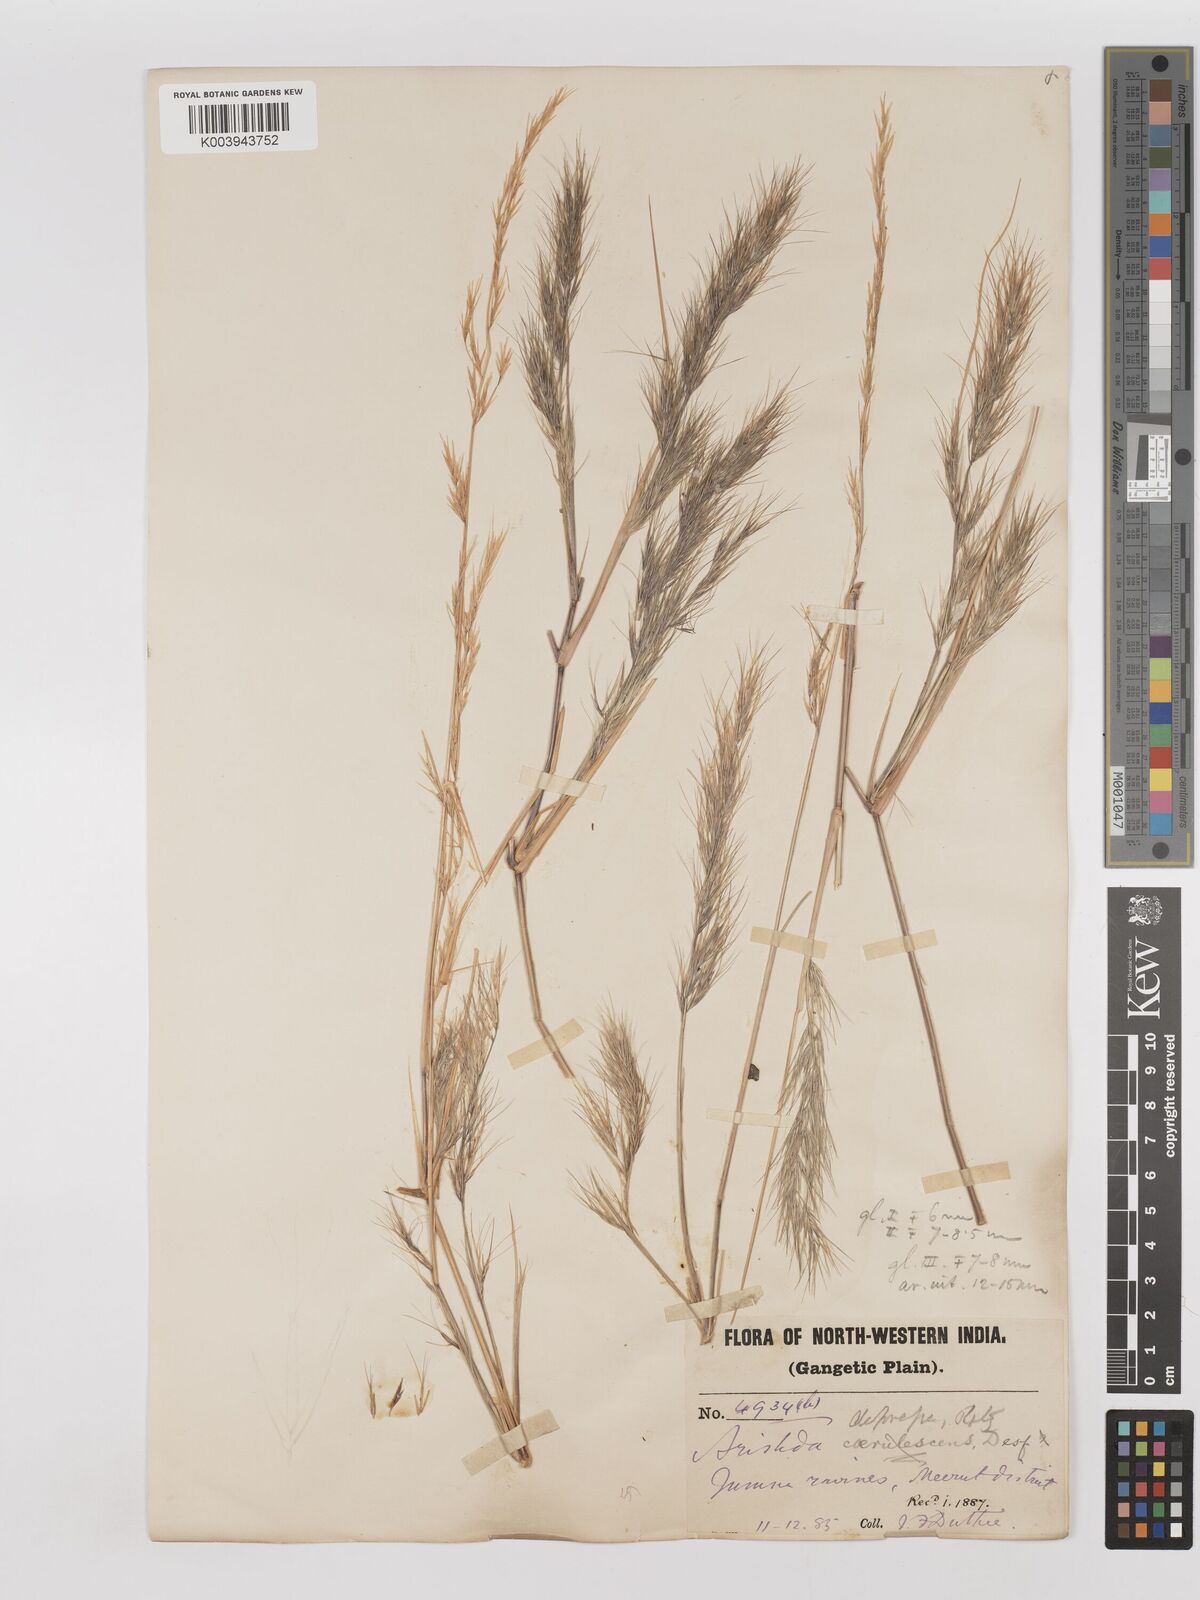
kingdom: Plantae
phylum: Tracheophyta
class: Liliopsida
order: Poales
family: Poaceae
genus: Aristida
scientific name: Aristida adscensionis
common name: Sixweeks threeawn
